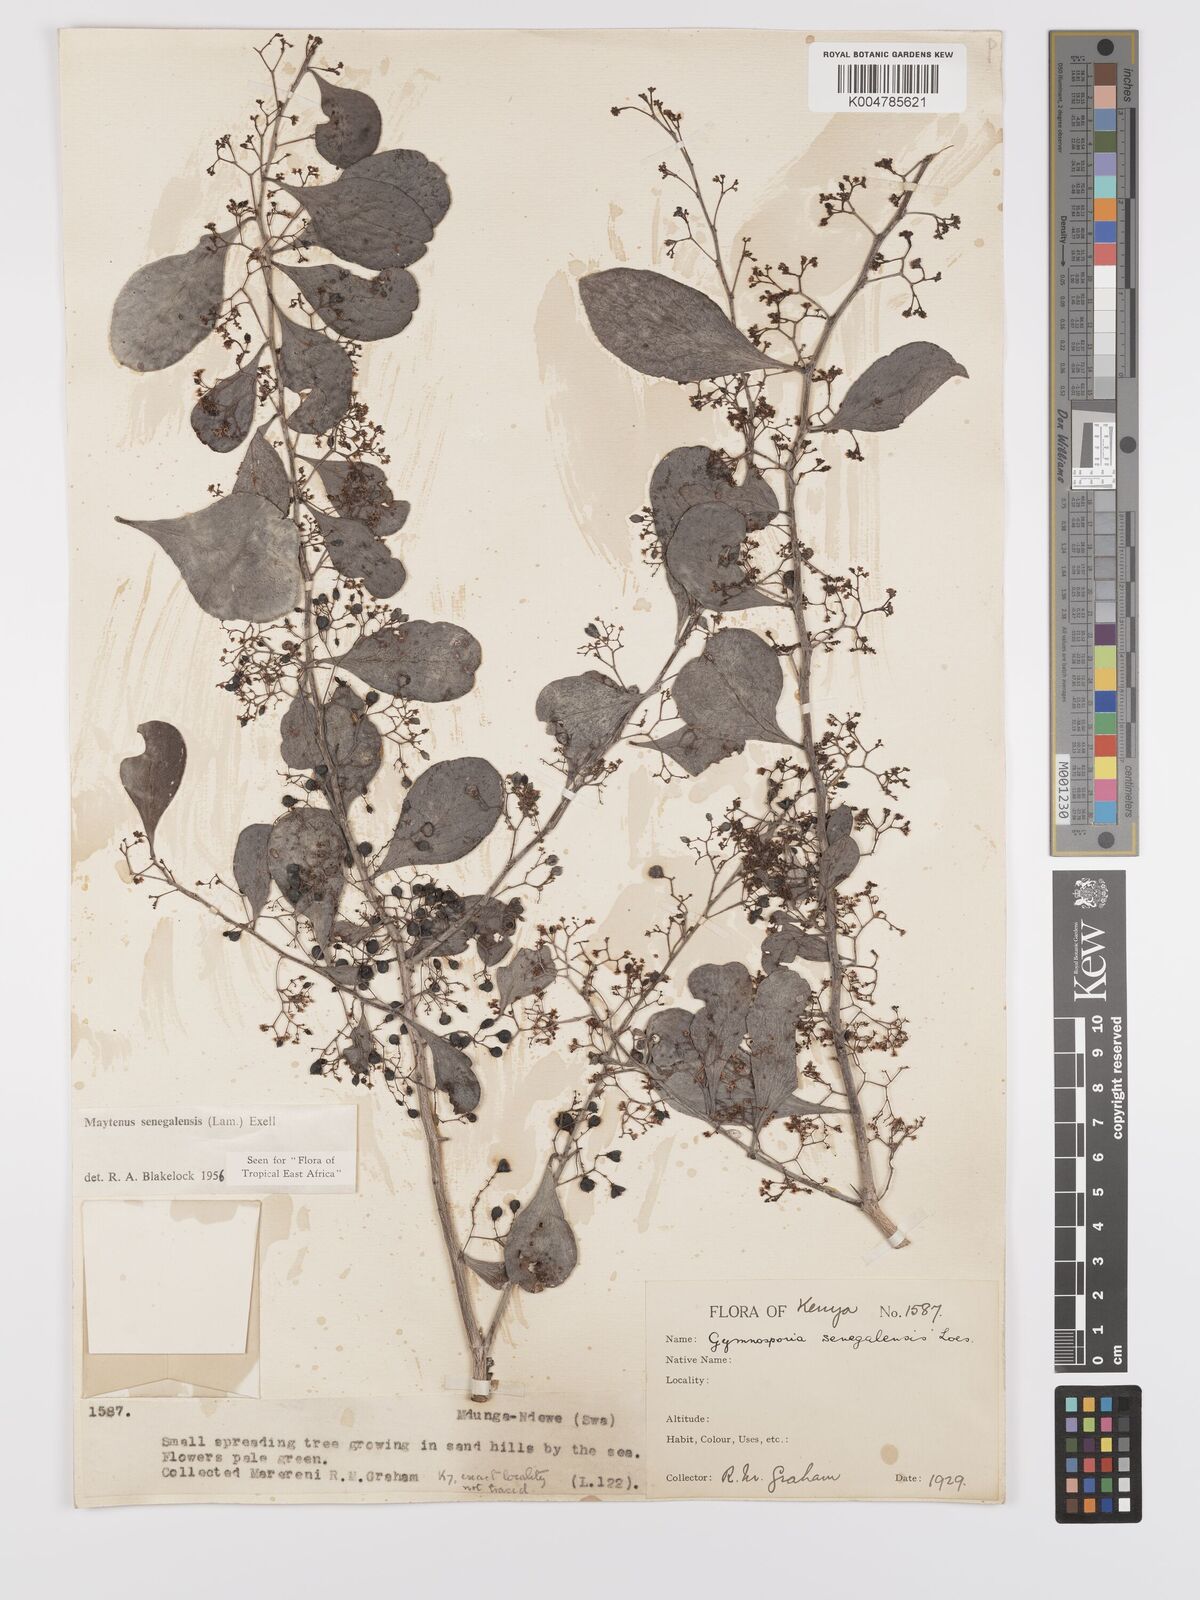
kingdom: Plantae
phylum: Tracheophyta
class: Magnoliopsida
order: Celastrales
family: Celastraceae
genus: Gymnosporia
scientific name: Gymnosporia senegalensis
